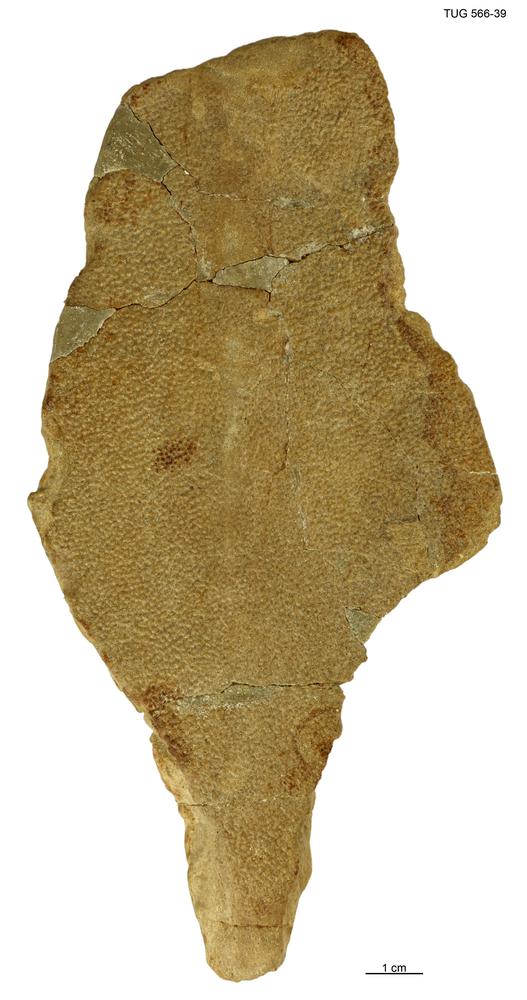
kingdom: Animalia
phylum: Chordata
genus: Homosteus
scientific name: Homosteus sulcatus
